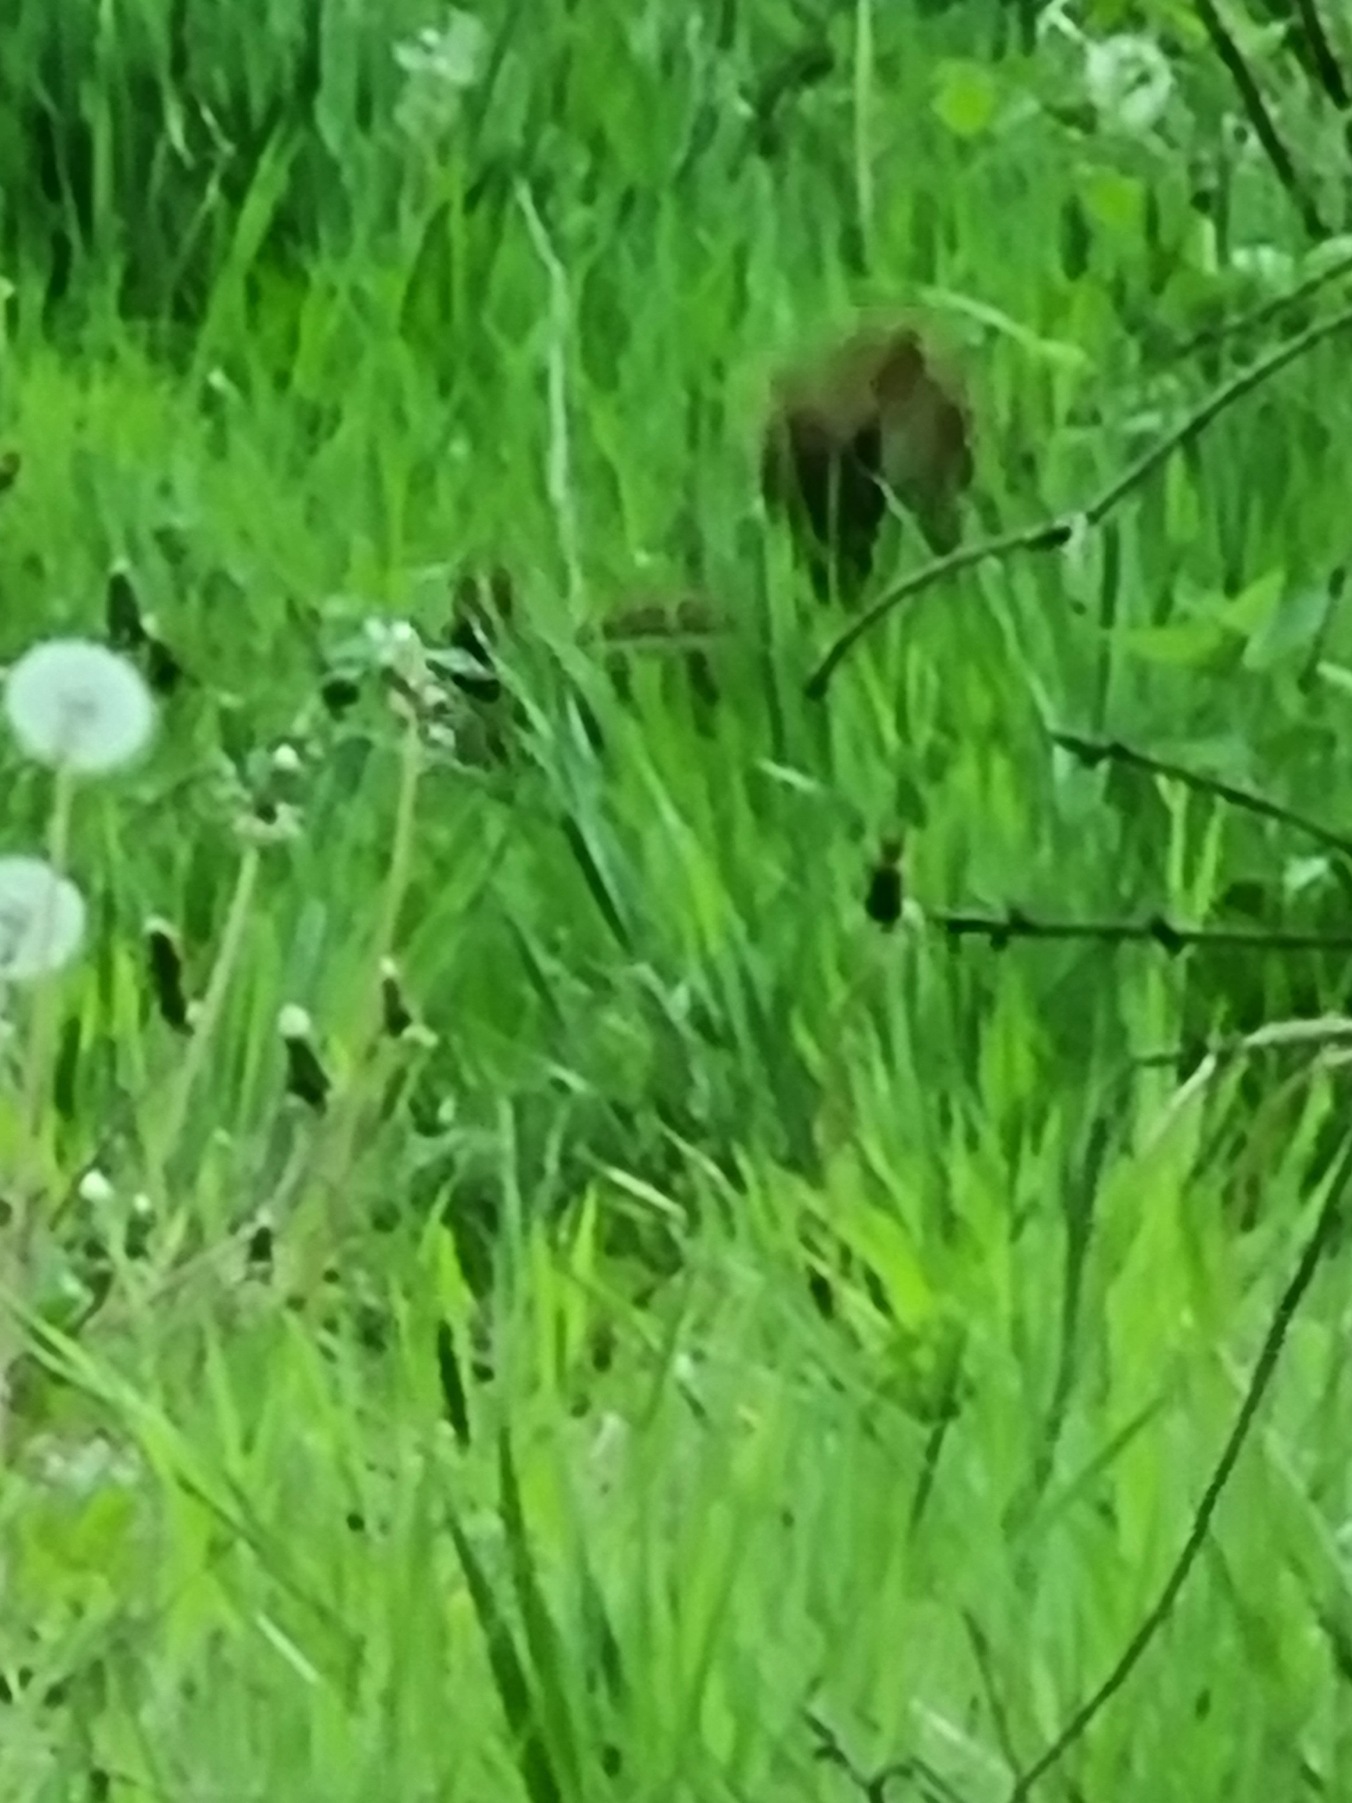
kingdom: Animalia
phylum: Chordata
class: Mammalia
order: Rodentia
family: Sciuridae
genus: Sciurus
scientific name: Sciurus vulgaris
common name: Egern
